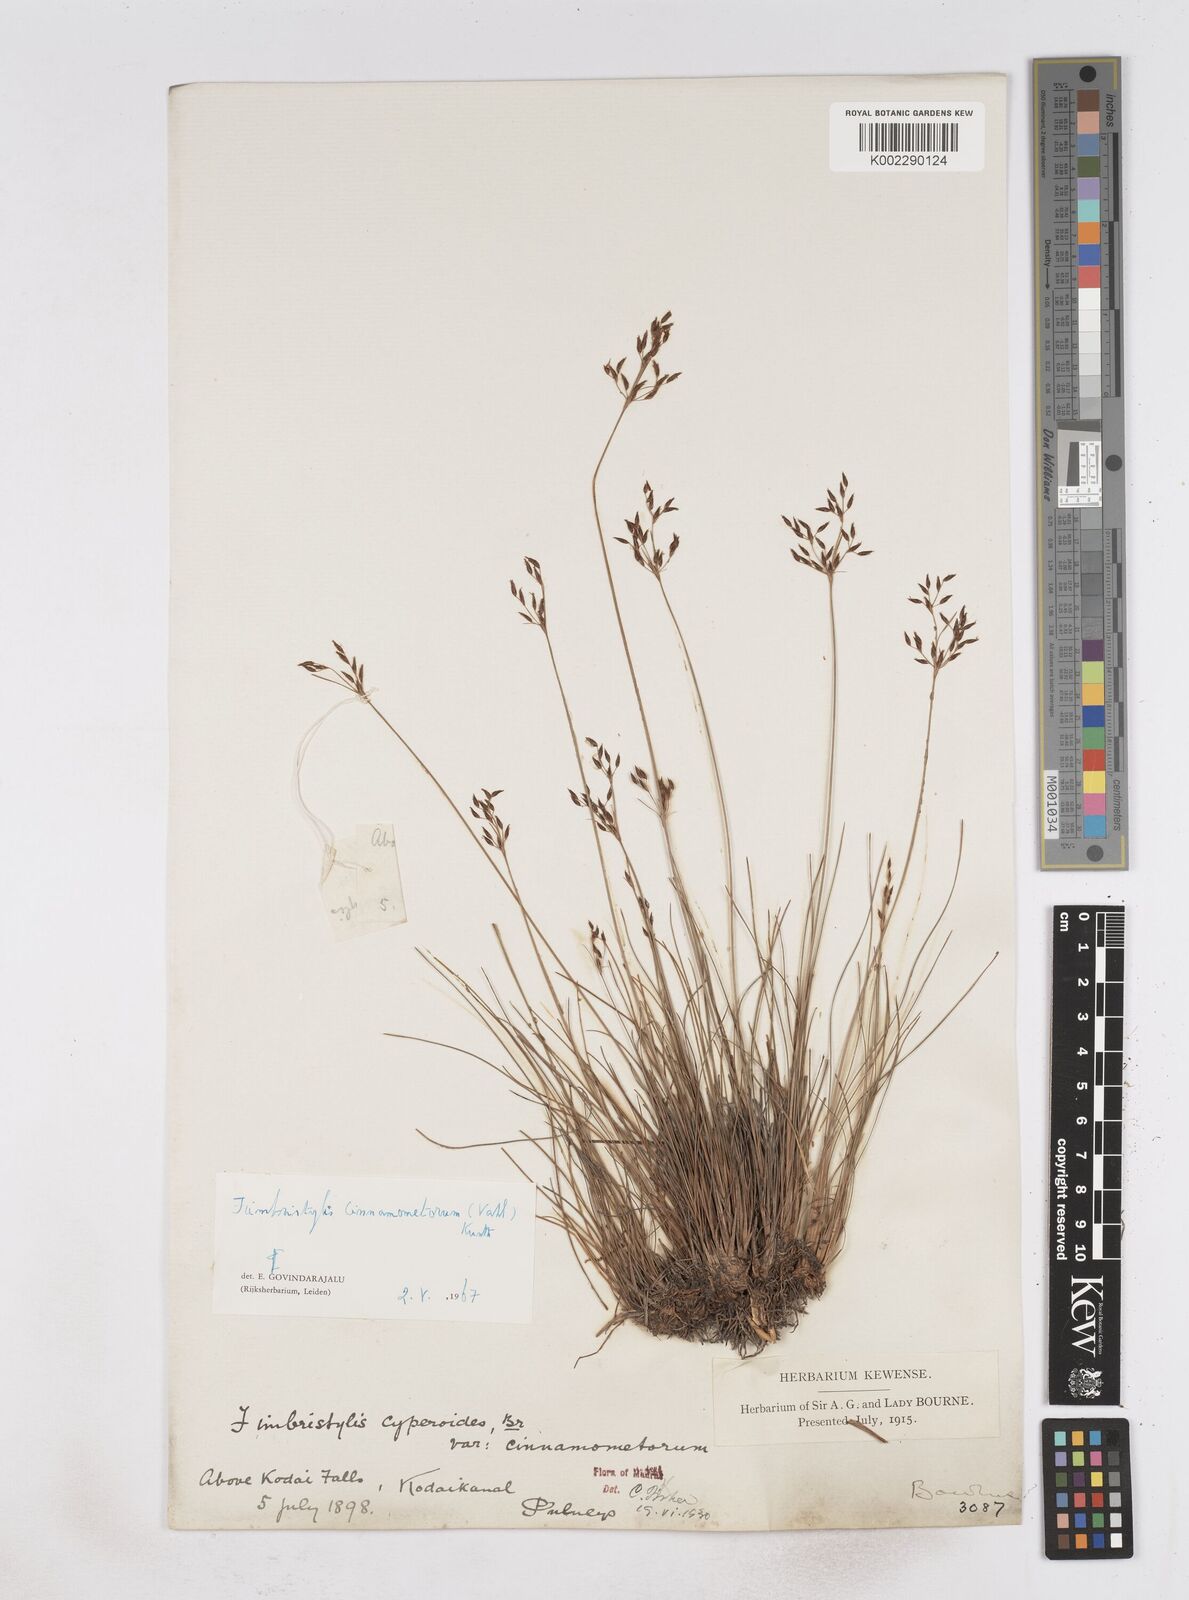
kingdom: Plantae
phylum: Tracheophyta
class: Liliopsida
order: Poales
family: Cyperaceae
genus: Fimbristylis
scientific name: Fimbristylis cinnamometorum
